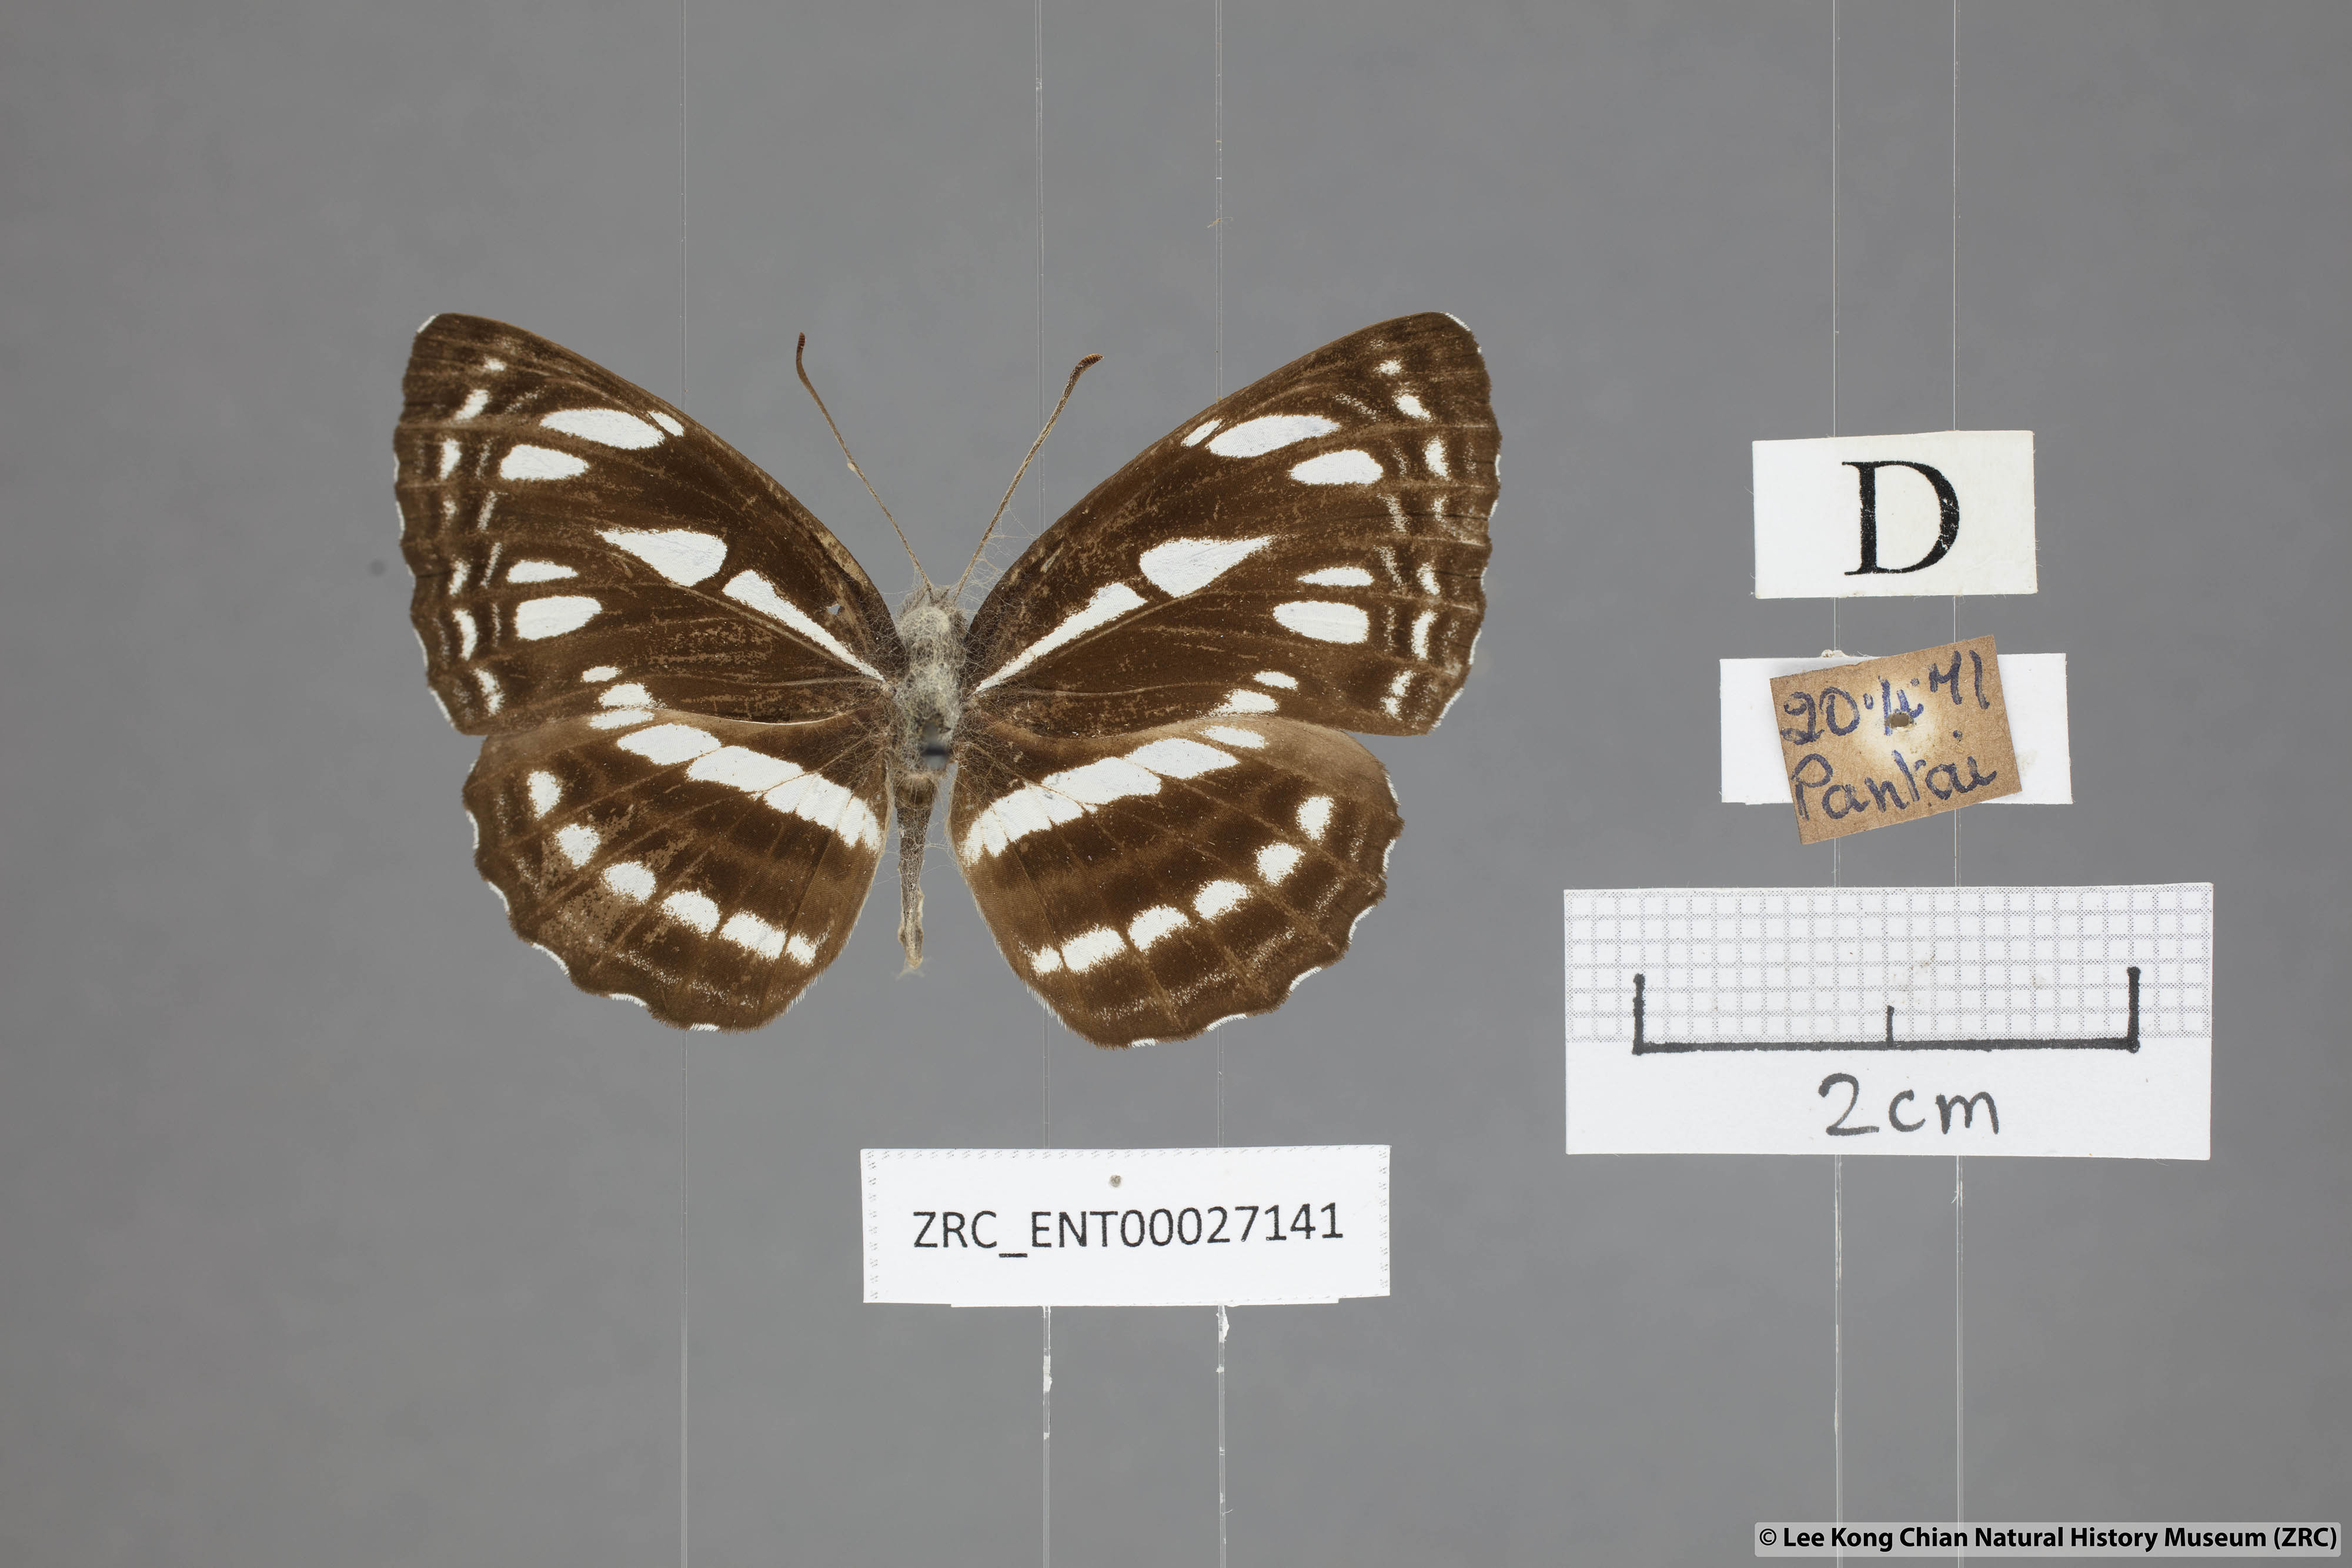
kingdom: Animalia
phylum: Arthropoda
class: Insecta
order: Lepidoptera
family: Nymphalidae
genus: Neptis
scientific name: Neptis duryodana
